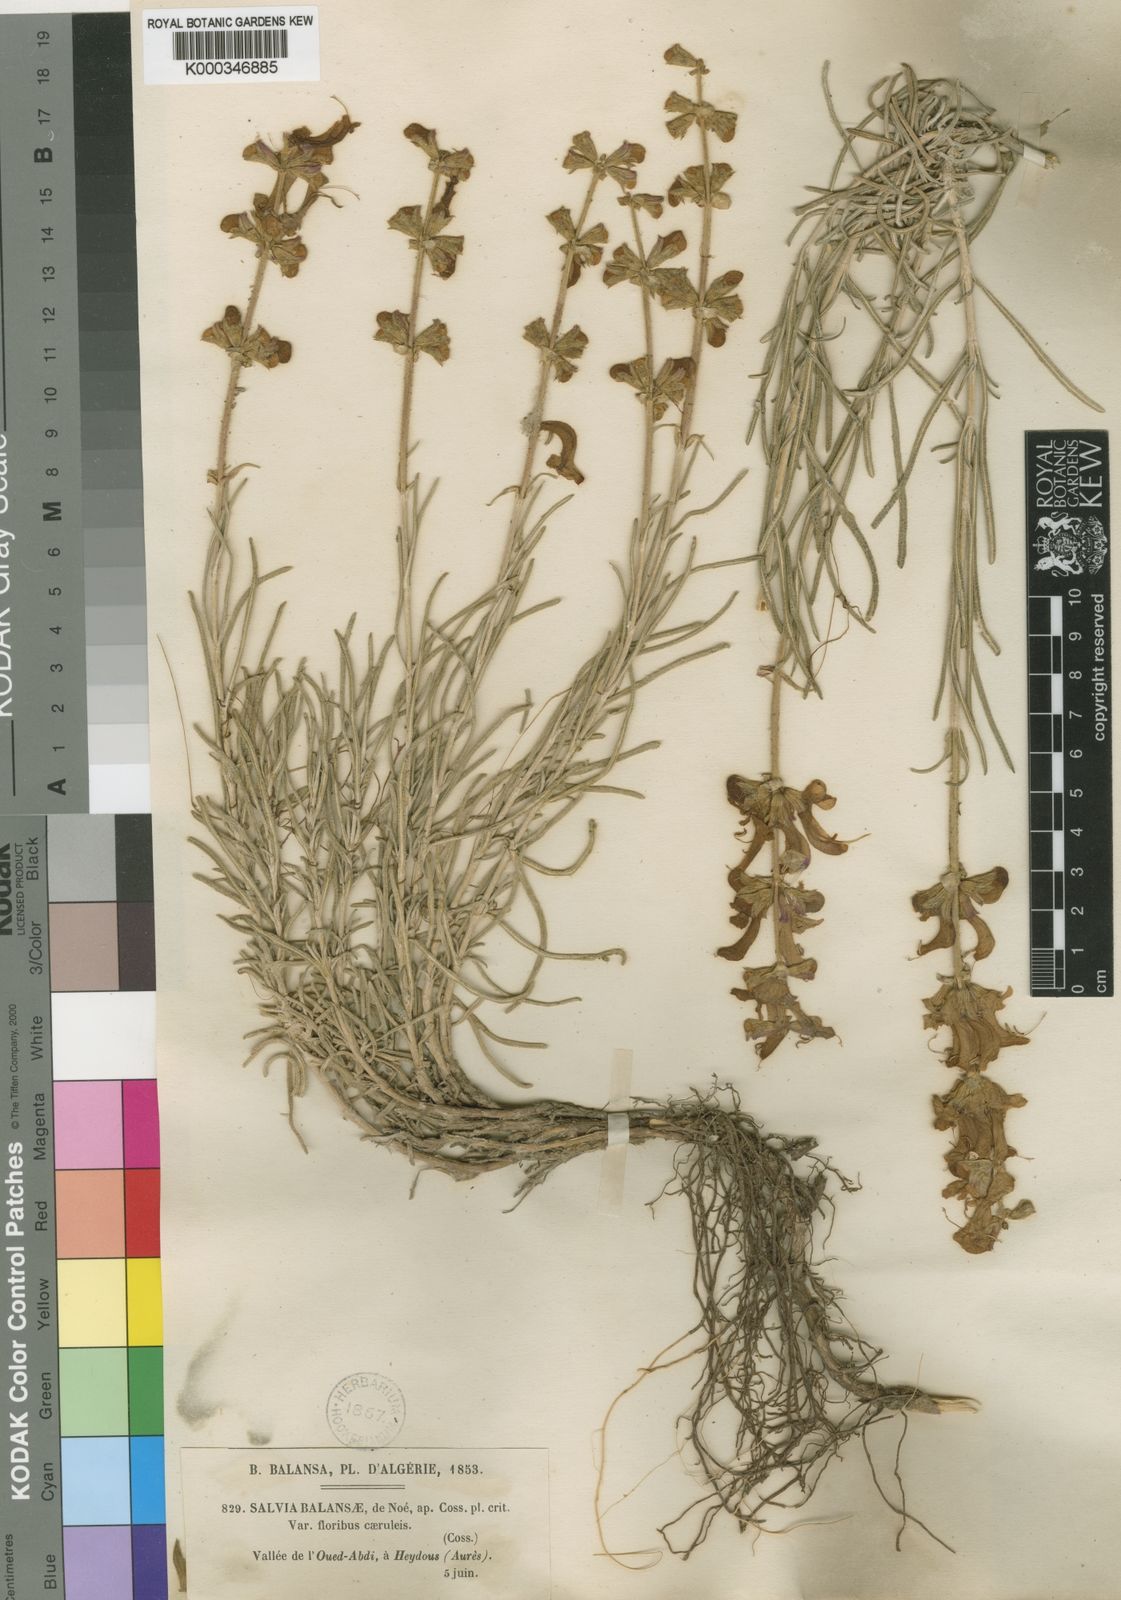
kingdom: Plantae
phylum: Tracheophyta
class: Magnoliopsida
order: Lamiales
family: Lamiaceae
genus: Salvia
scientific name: Salvia
